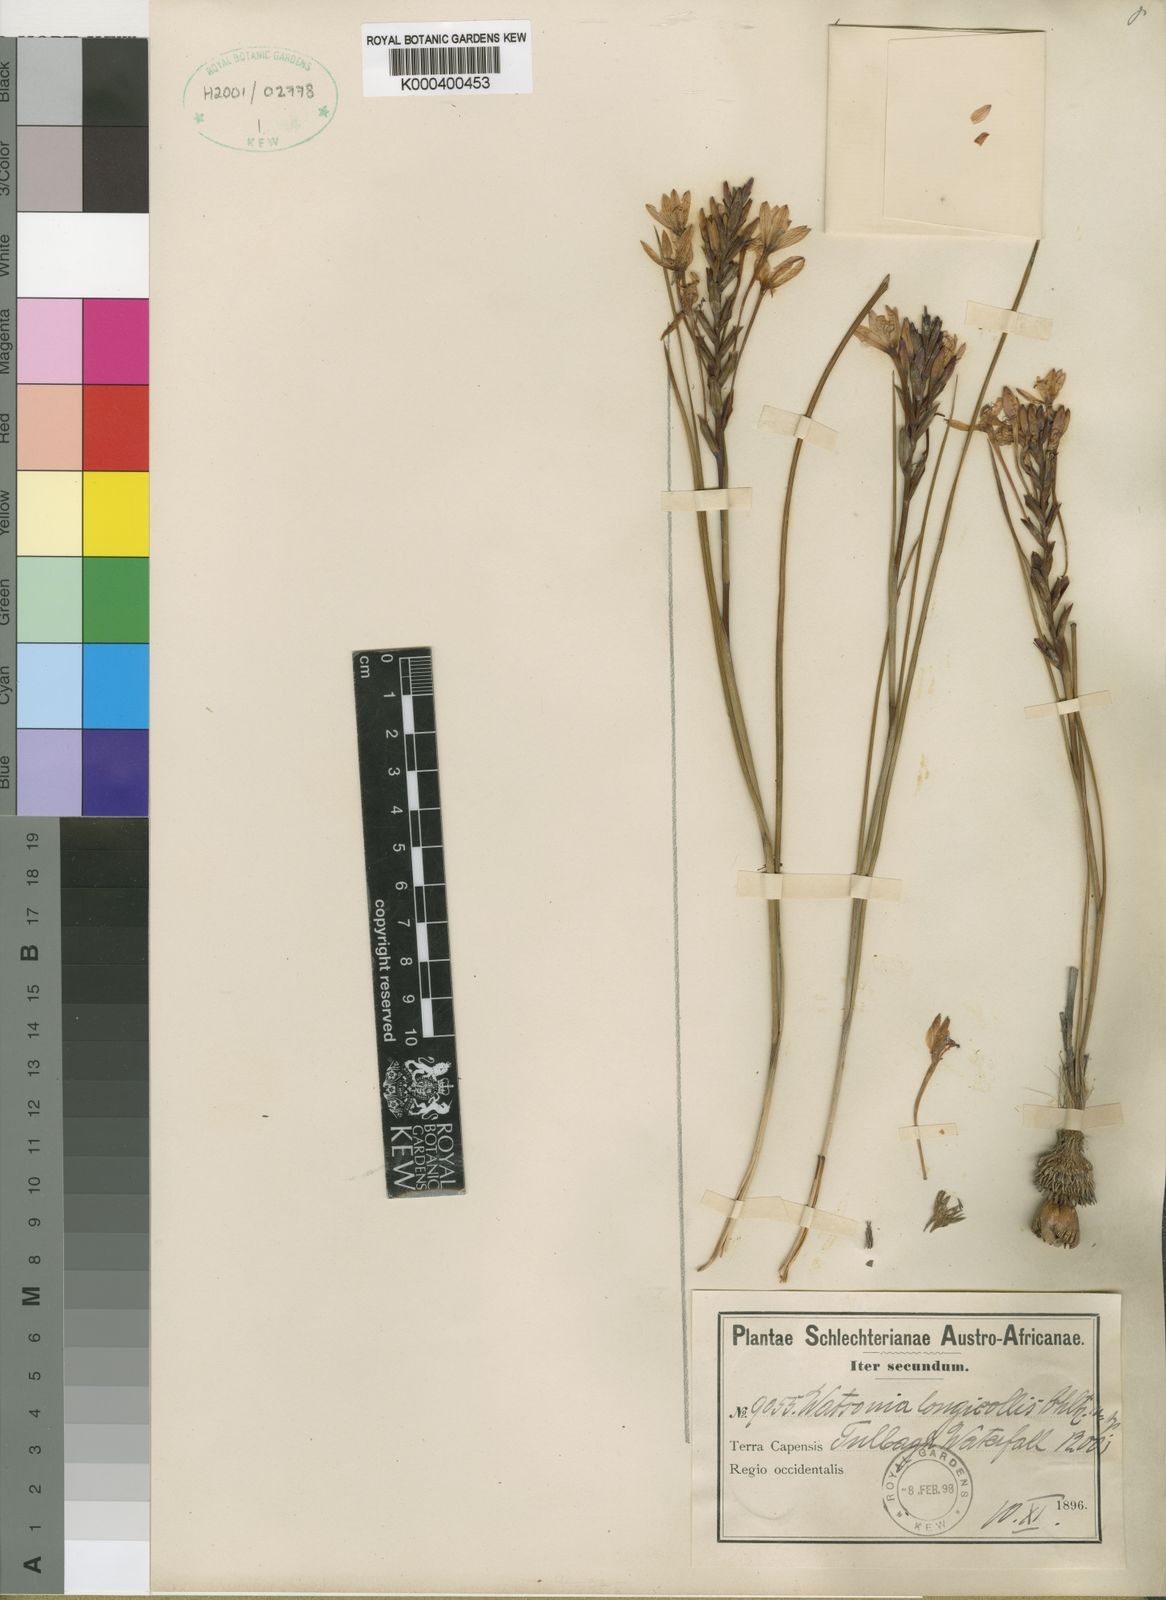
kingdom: Plantae
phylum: Tracheophyta
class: Liliopsida
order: Asparagales
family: Iridaceae
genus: Thereianthus
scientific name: Thereianthus longicollis
